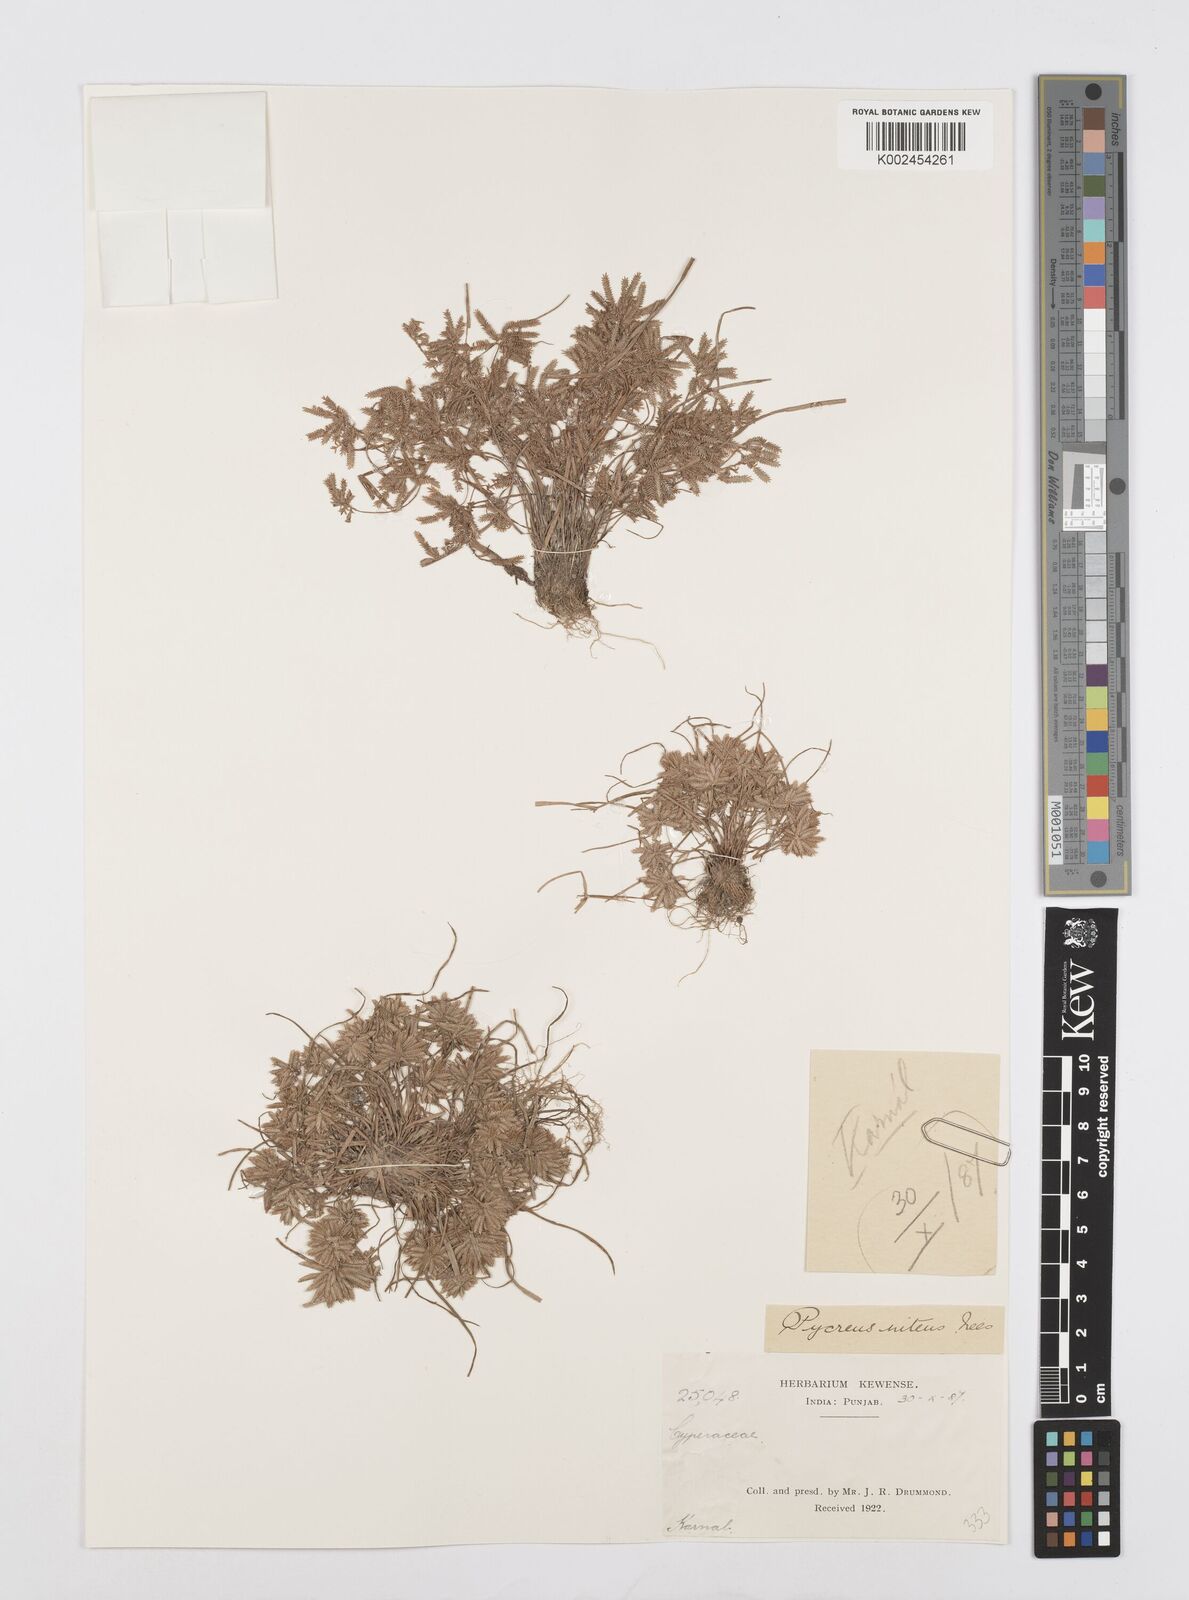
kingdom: Plantae
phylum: Tracheophyta
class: Liliopsida
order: Poales
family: Cyperaceae
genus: Cyperus
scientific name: Cyperus pumilus
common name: Low flatsedge
